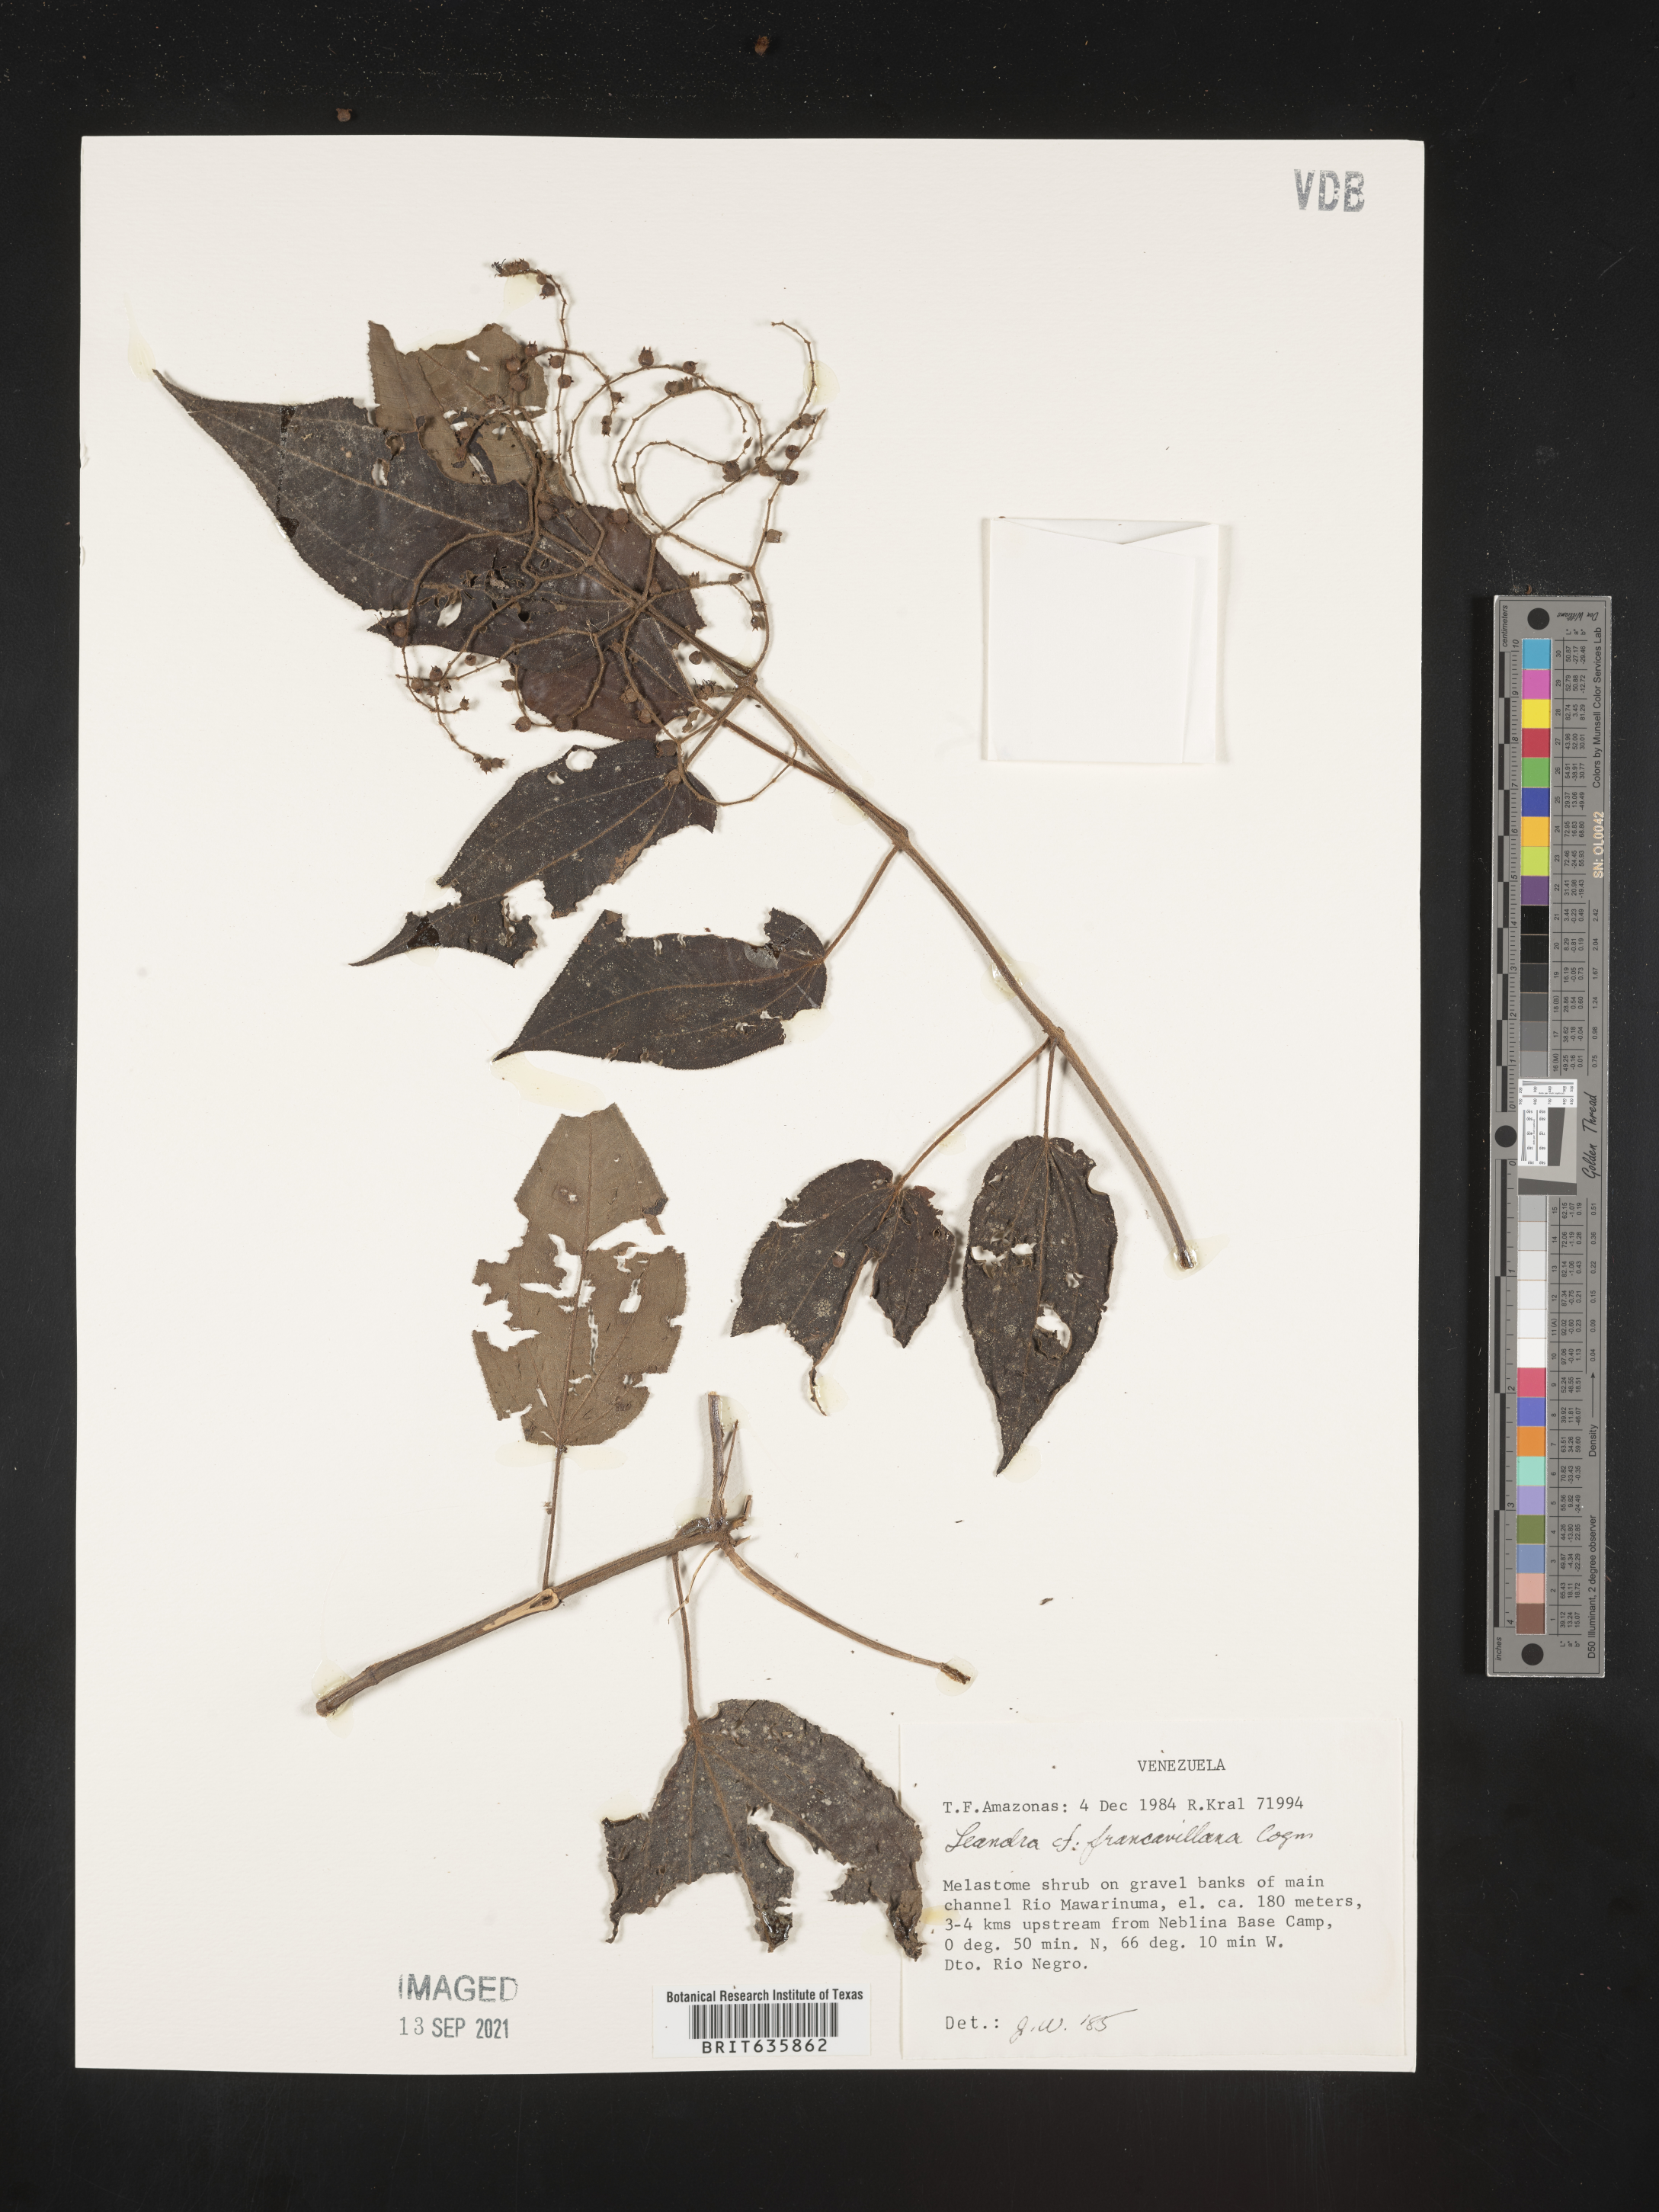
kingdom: Plantae
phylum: Tracheophyta
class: Magnoliopsida
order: Myrtales
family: Melastomataceae
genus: Miconia
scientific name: Miconia
